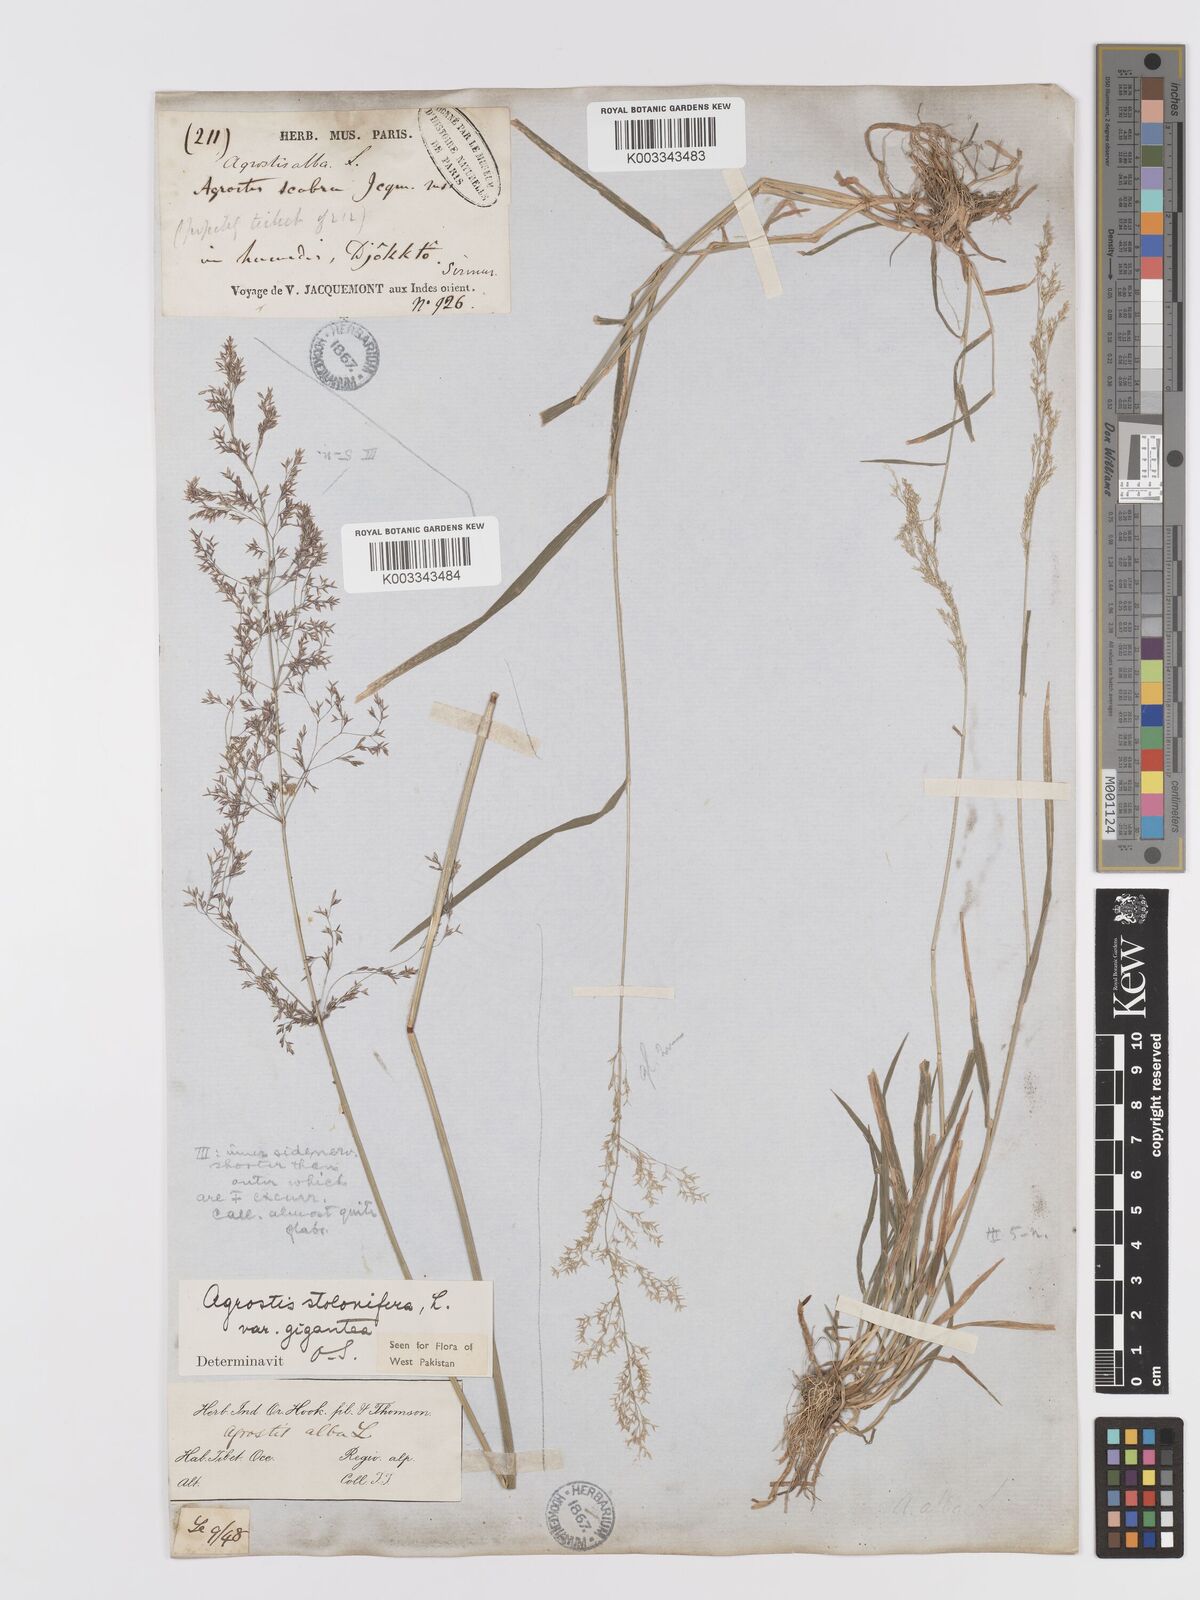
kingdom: Plantae
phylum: Tracheophyta
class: Liliopsida
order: Poales
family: Poaceae
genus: Agrostis
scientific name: Agrostis gigantea
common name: Black bent
